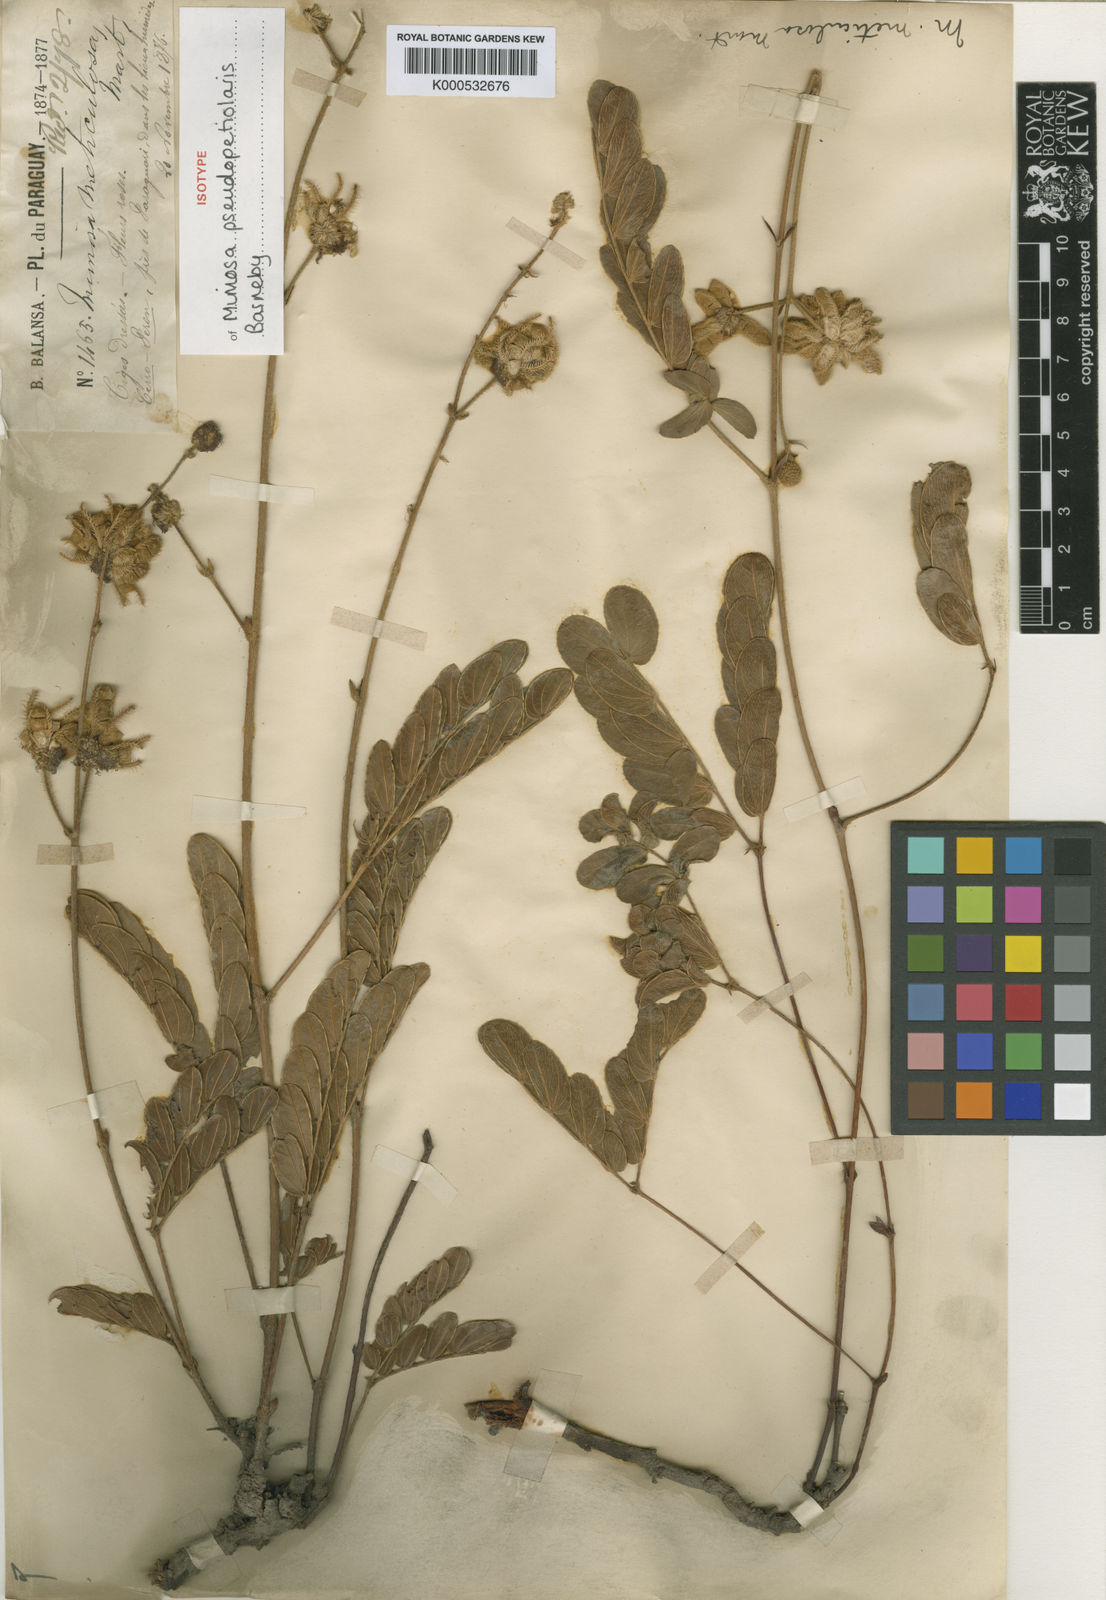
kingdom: Plantae
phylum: Tracheophyta
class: Magnoliopsida
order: Fabales
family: Fabaceae
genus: Mimosa
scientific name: Mimosa pseudopetiolaris
